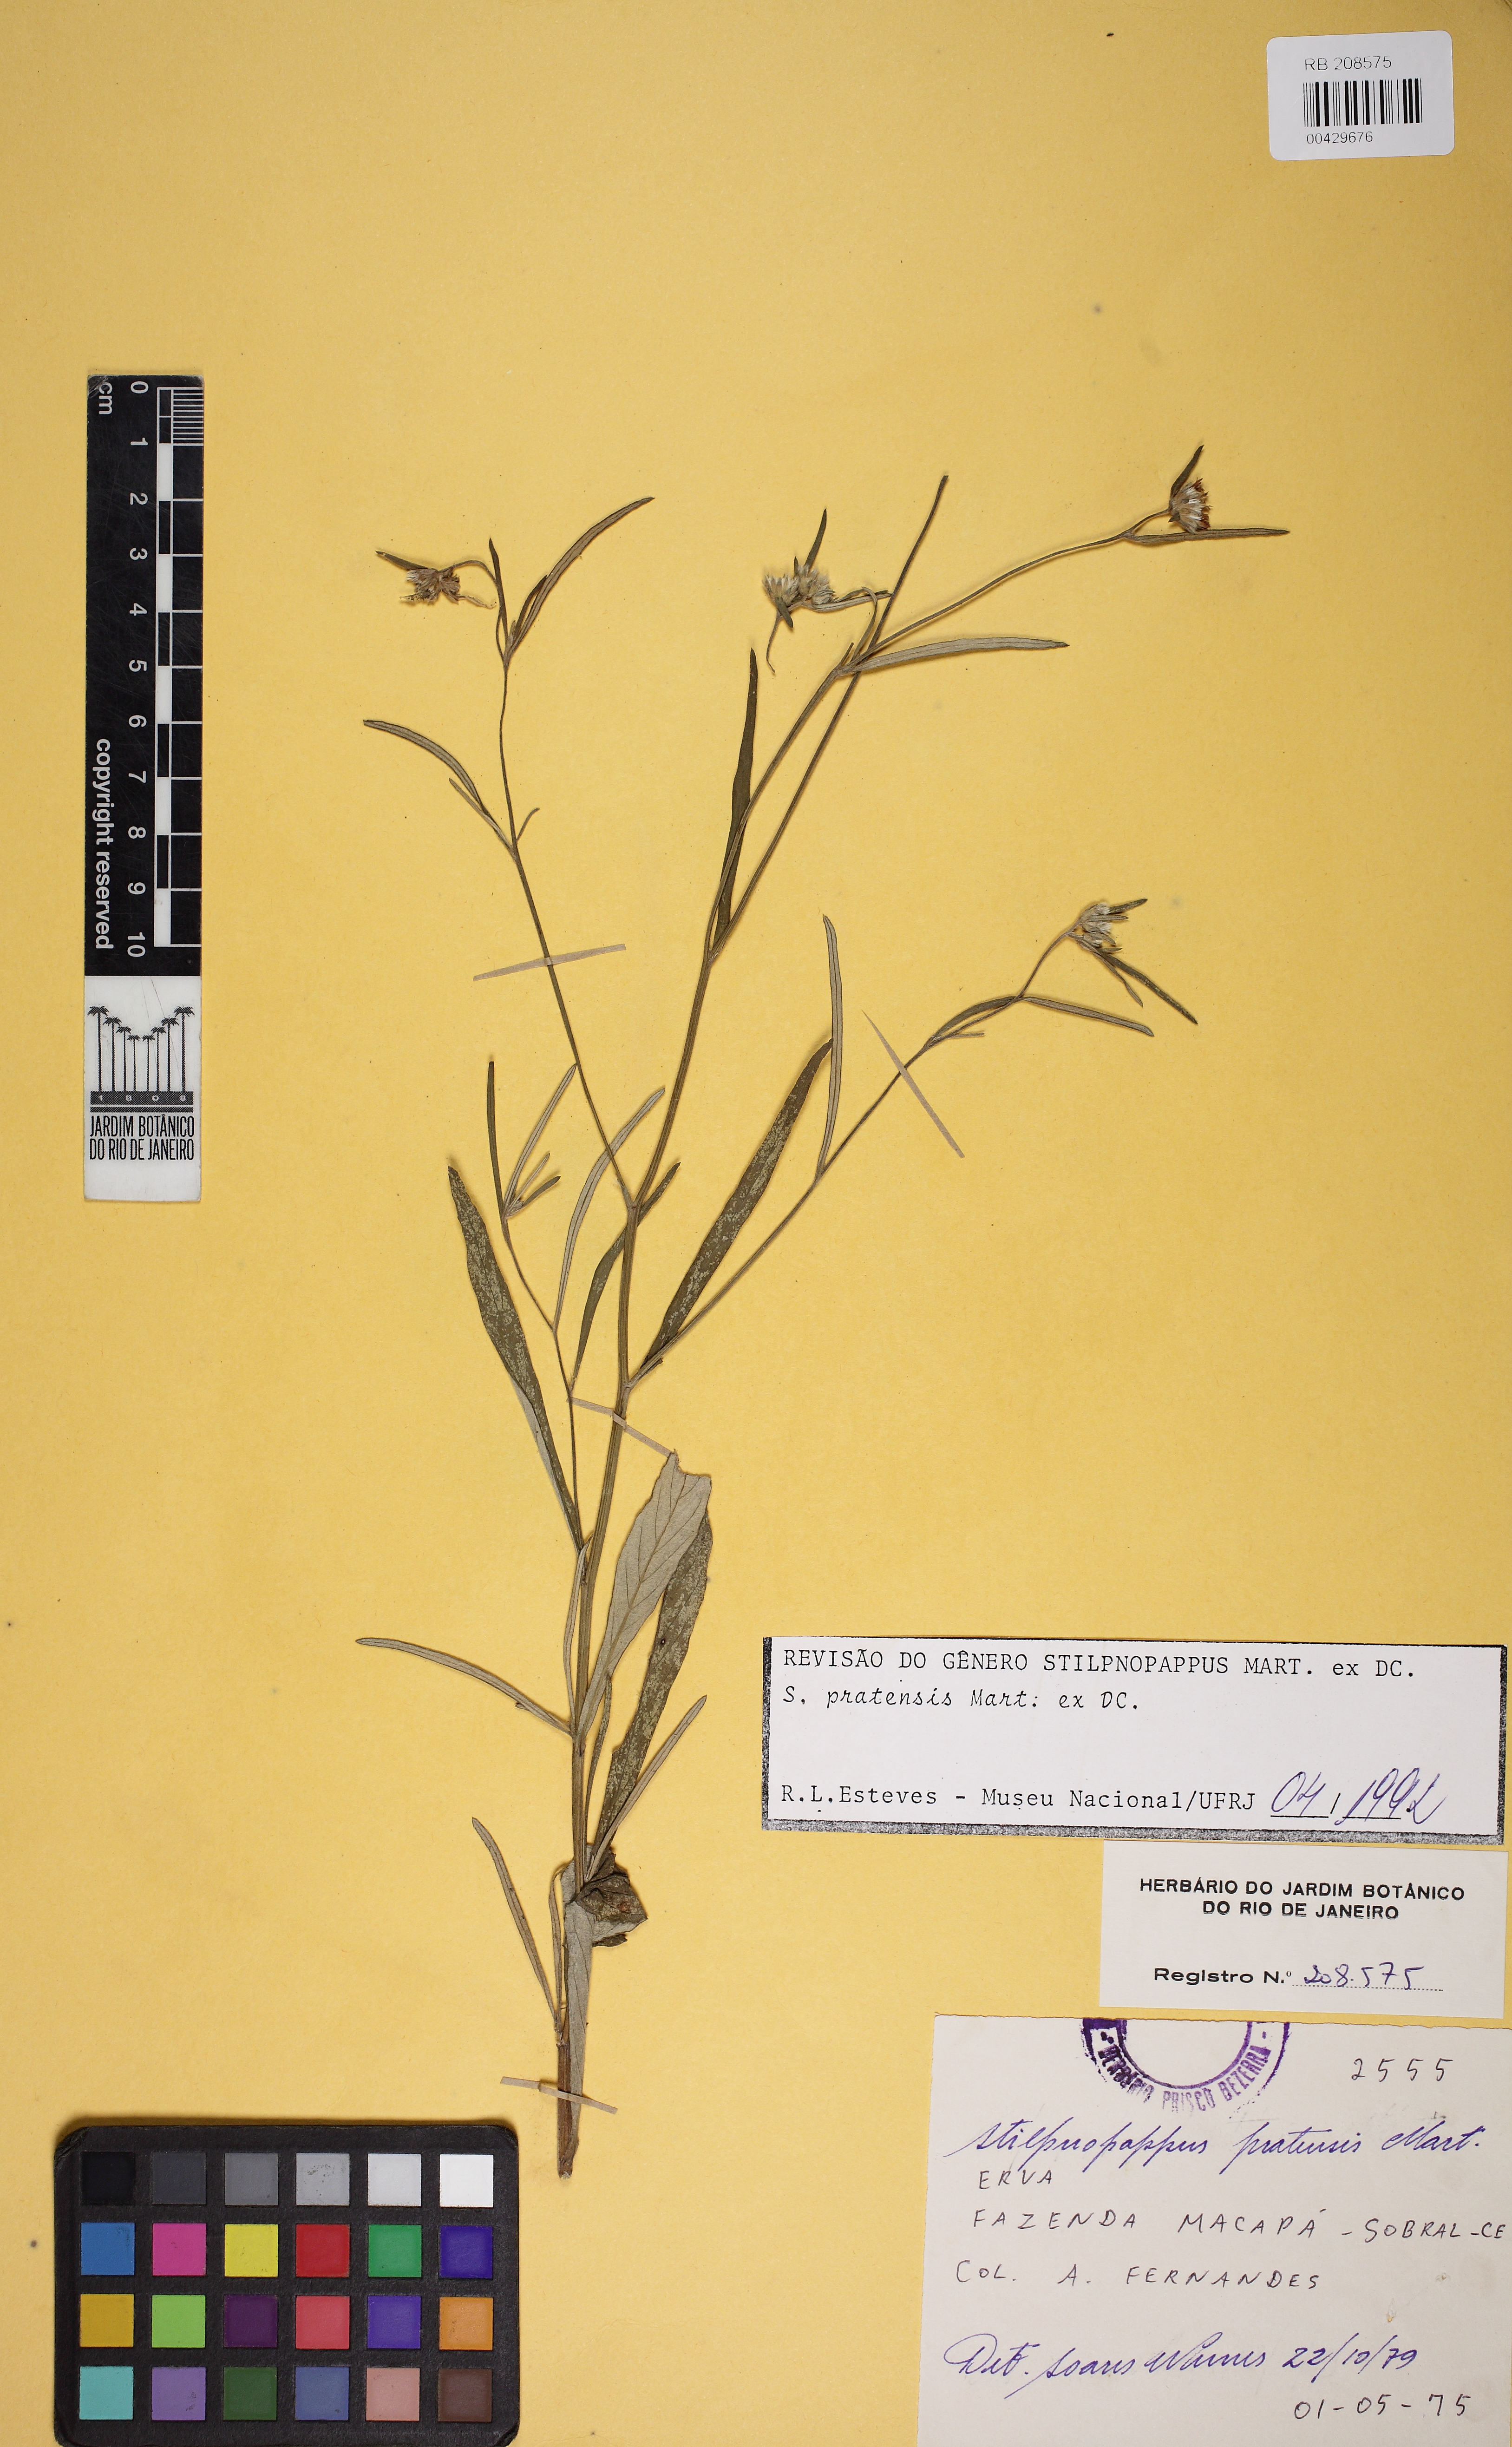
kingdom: Plantae
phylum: Tracheophyta
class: Magnoliopsida
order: Asterales
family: Asteraceae
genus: Stilpnopappus
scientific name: Stilpnopappus pratensis
